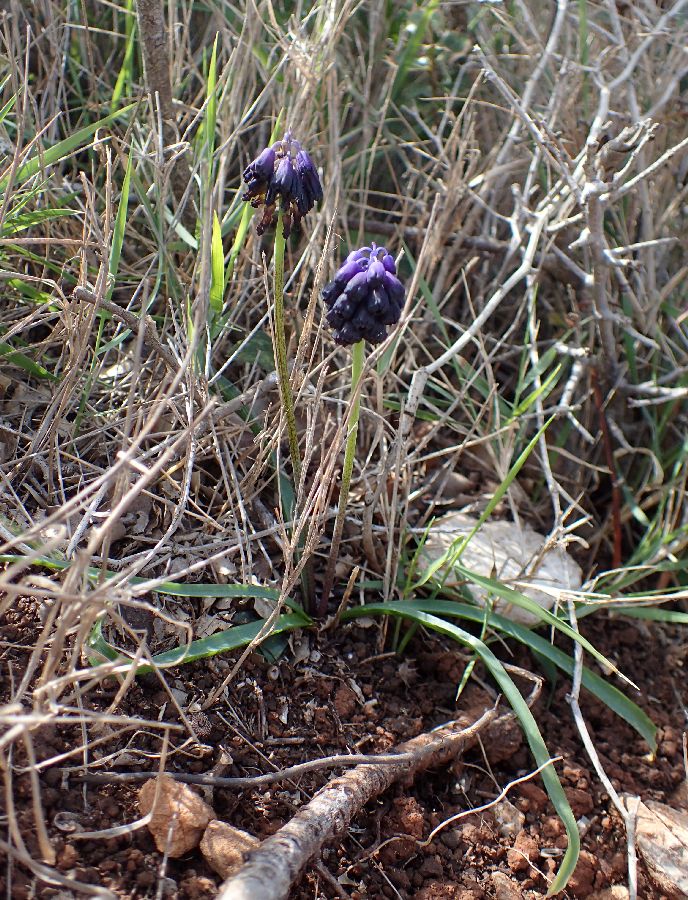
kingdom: Plantae
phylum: Tracheophyta
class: Liliopsida
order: Asparagales
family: Asparagaceae
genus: Muscari
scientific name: Muscari commutatum
